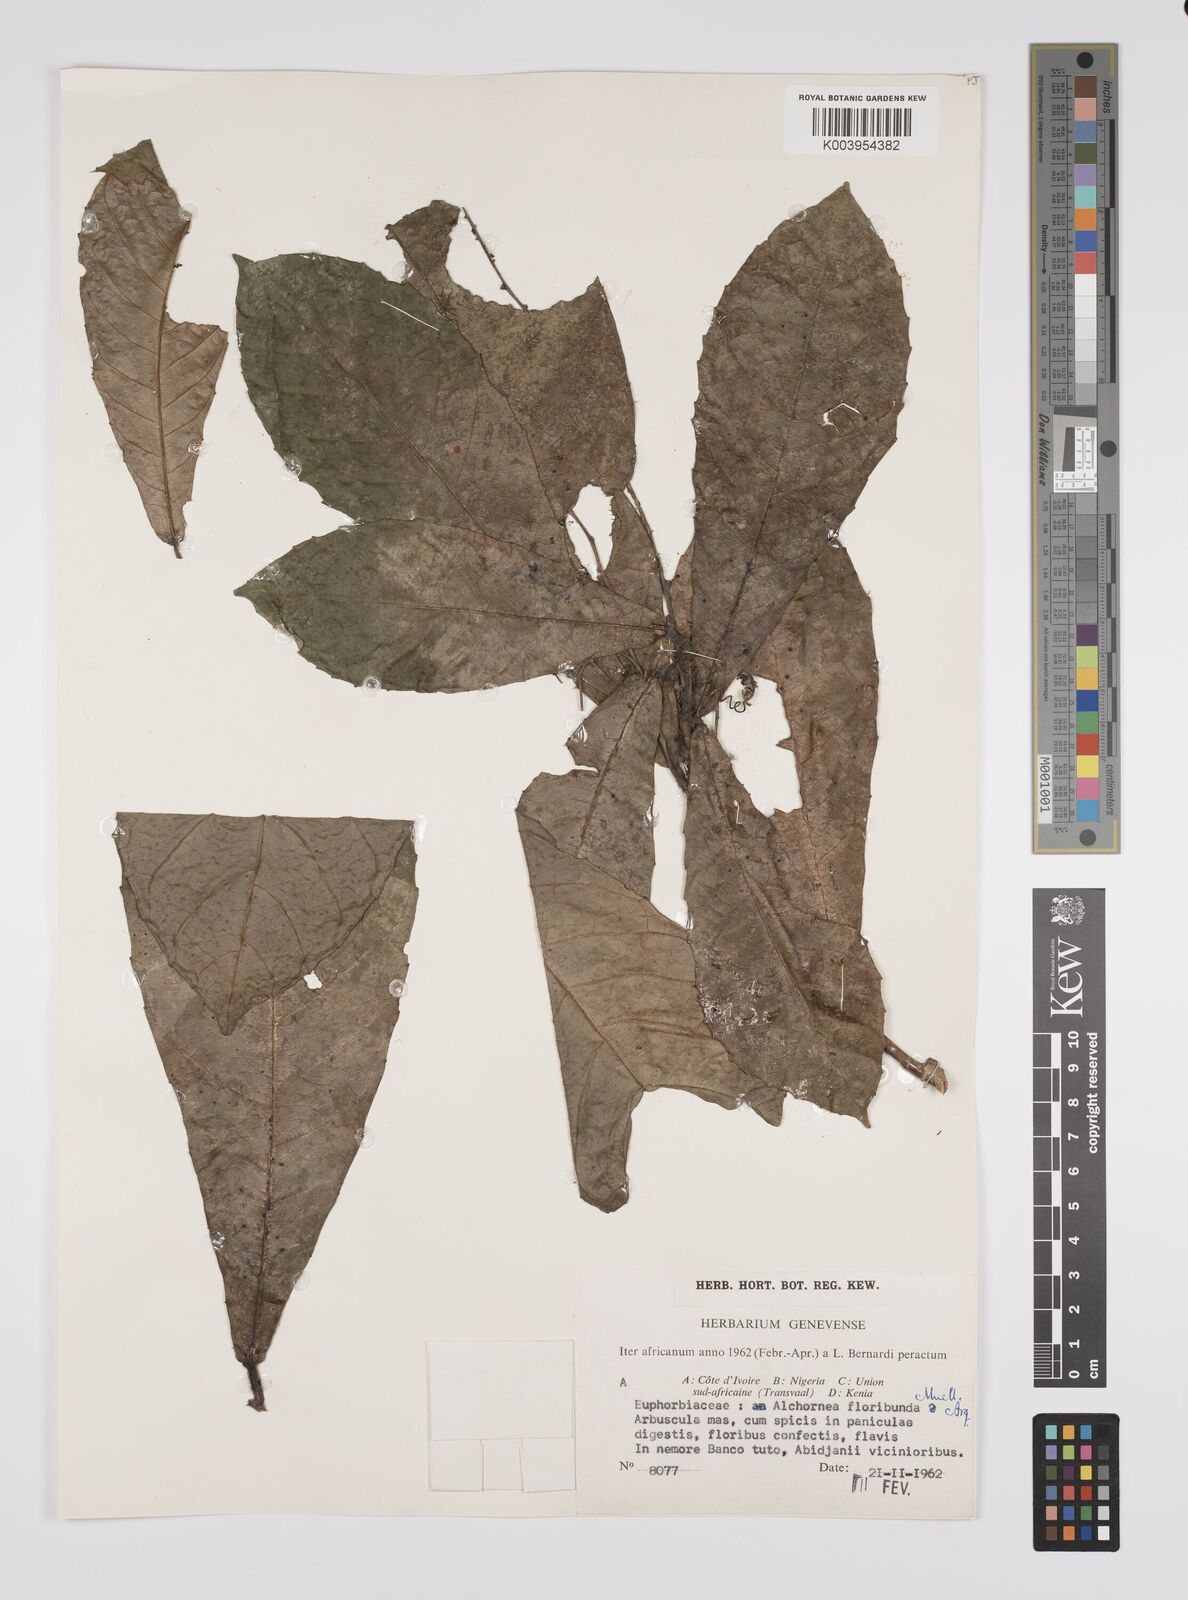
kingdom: Plantae
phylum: Tracheophyta
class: Magnoliopsida
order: Malpighiales
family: Euphorbiaceae
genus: Alchornea
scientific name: Alchornea floribunda
